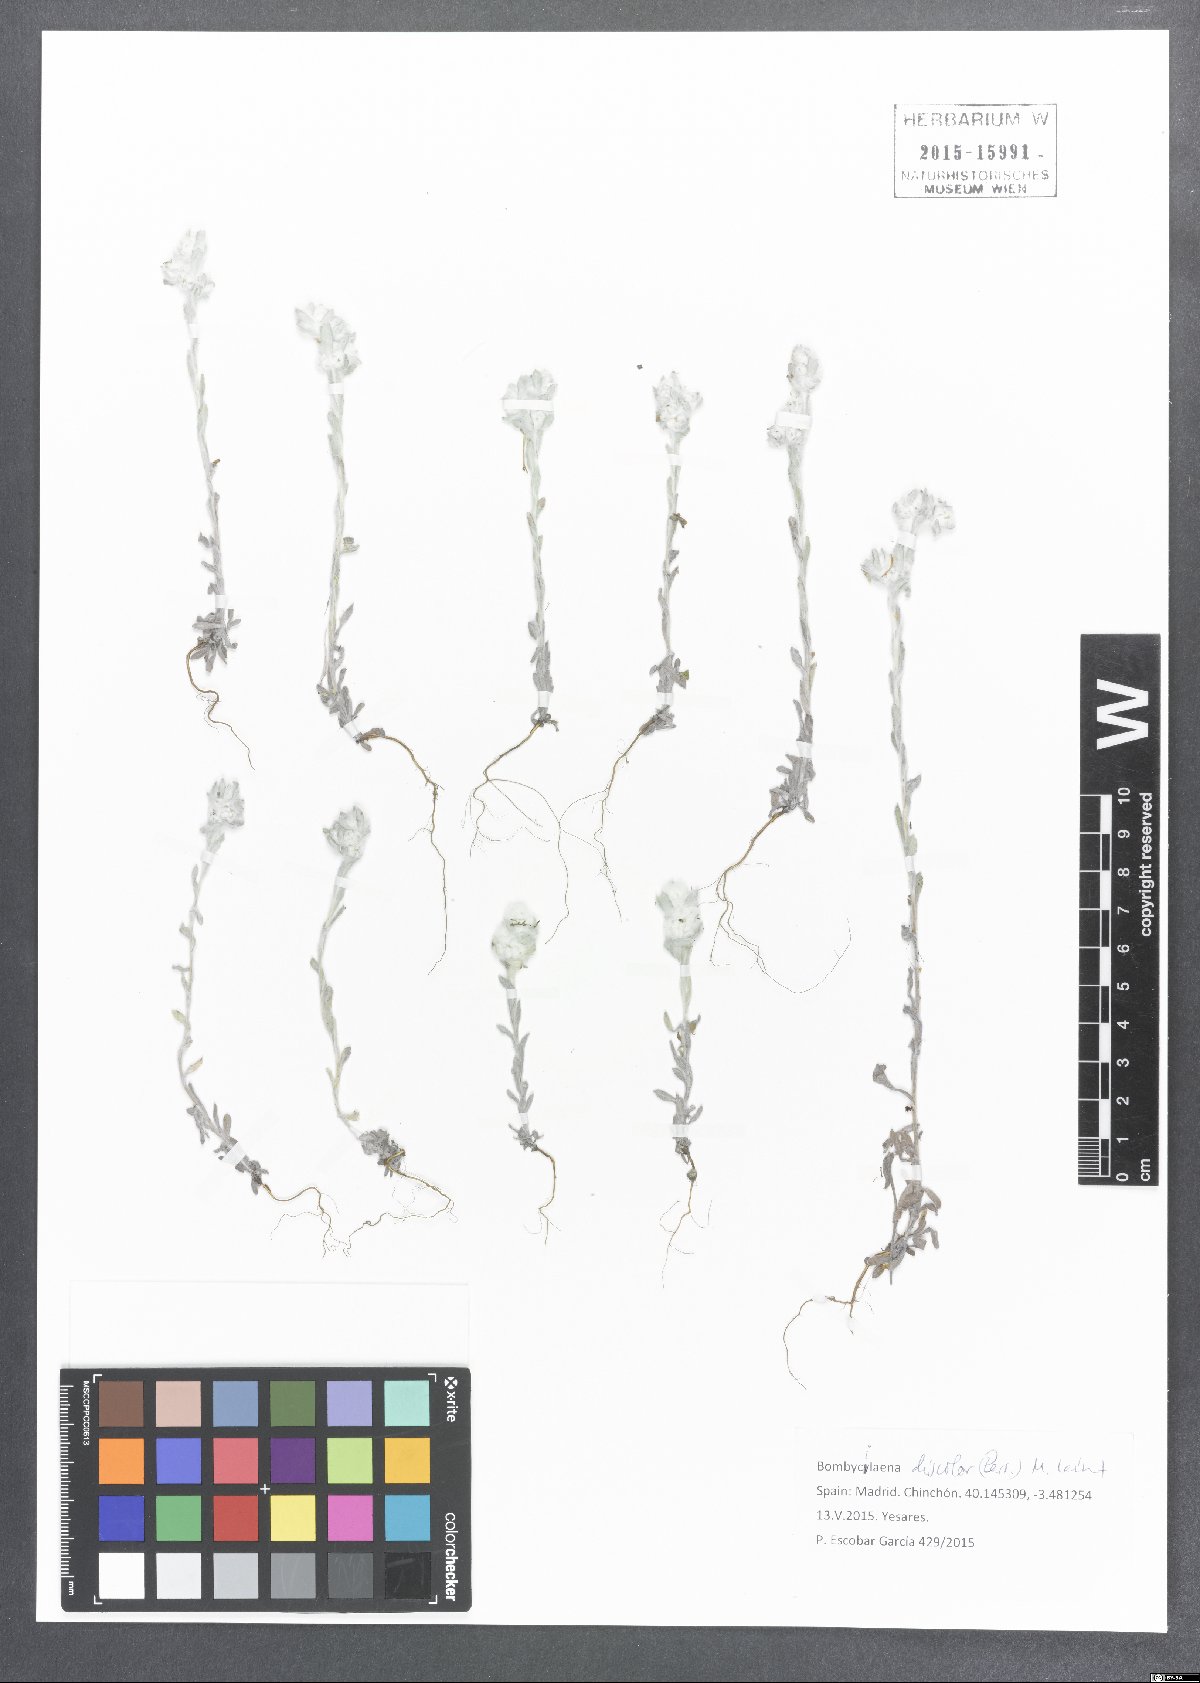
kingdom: Plantae
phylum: Tracheophyta
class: Magnoliopsida
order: Asterales
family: Asteraceae
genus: Bombycilaena
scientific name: Bombycilaena discolor
